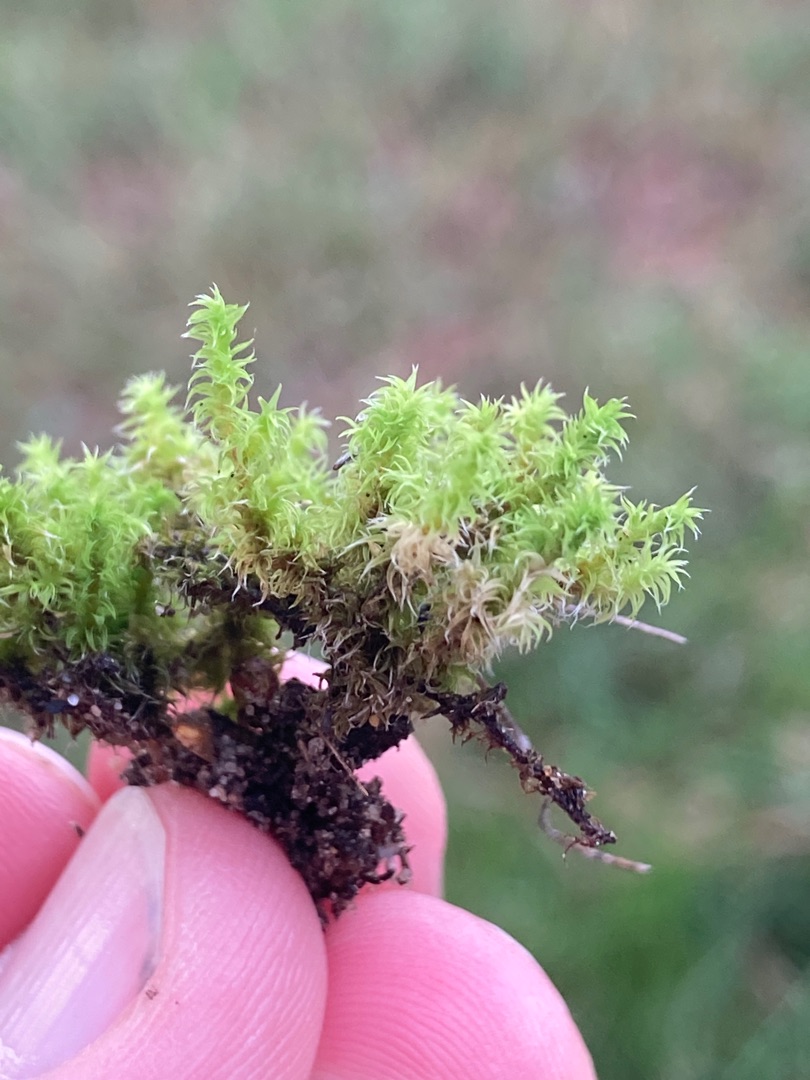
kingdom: Plantae
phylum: Bryophyta
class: Bryopsida
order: Grimmiales
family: Grimmiaceae
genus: Niphotrichum
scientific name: Niphotrichum elongatum
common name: Lang børstemos
